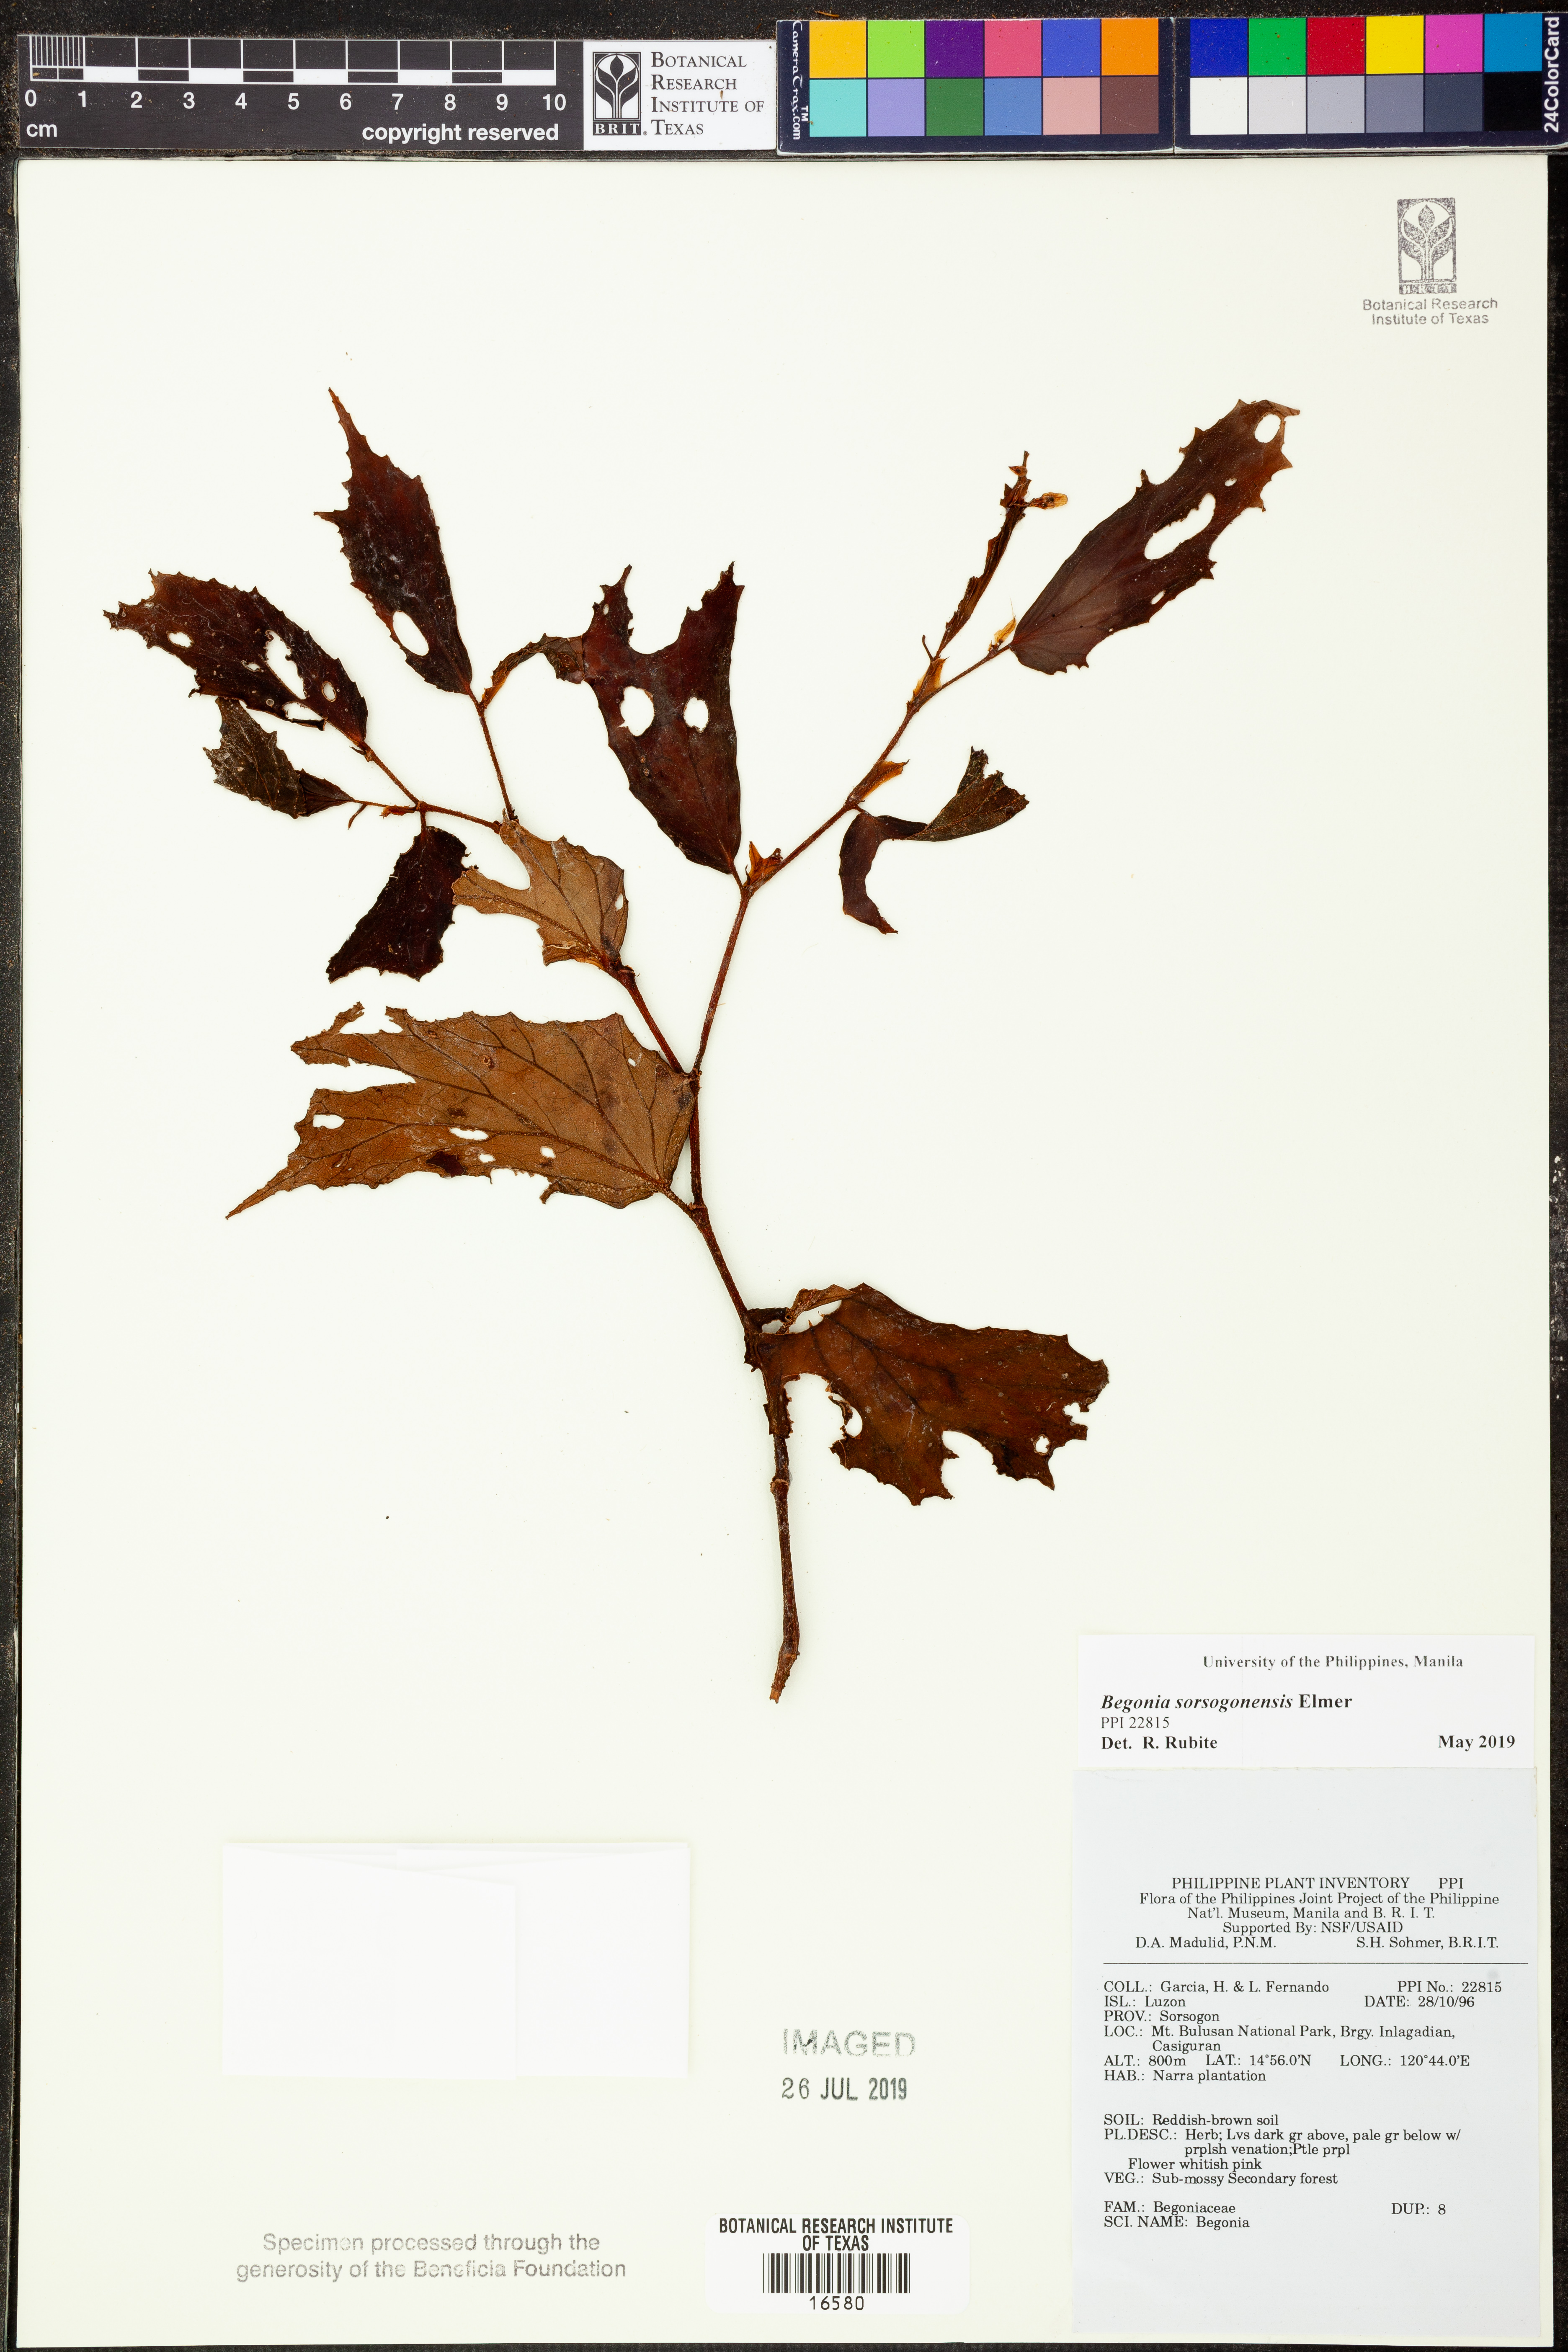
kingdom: Plantae
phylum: Tracheophyta
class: Magnoliopsida
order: Cucurbitales
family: Begoniaceae
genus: Begonia
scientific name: Begonia
